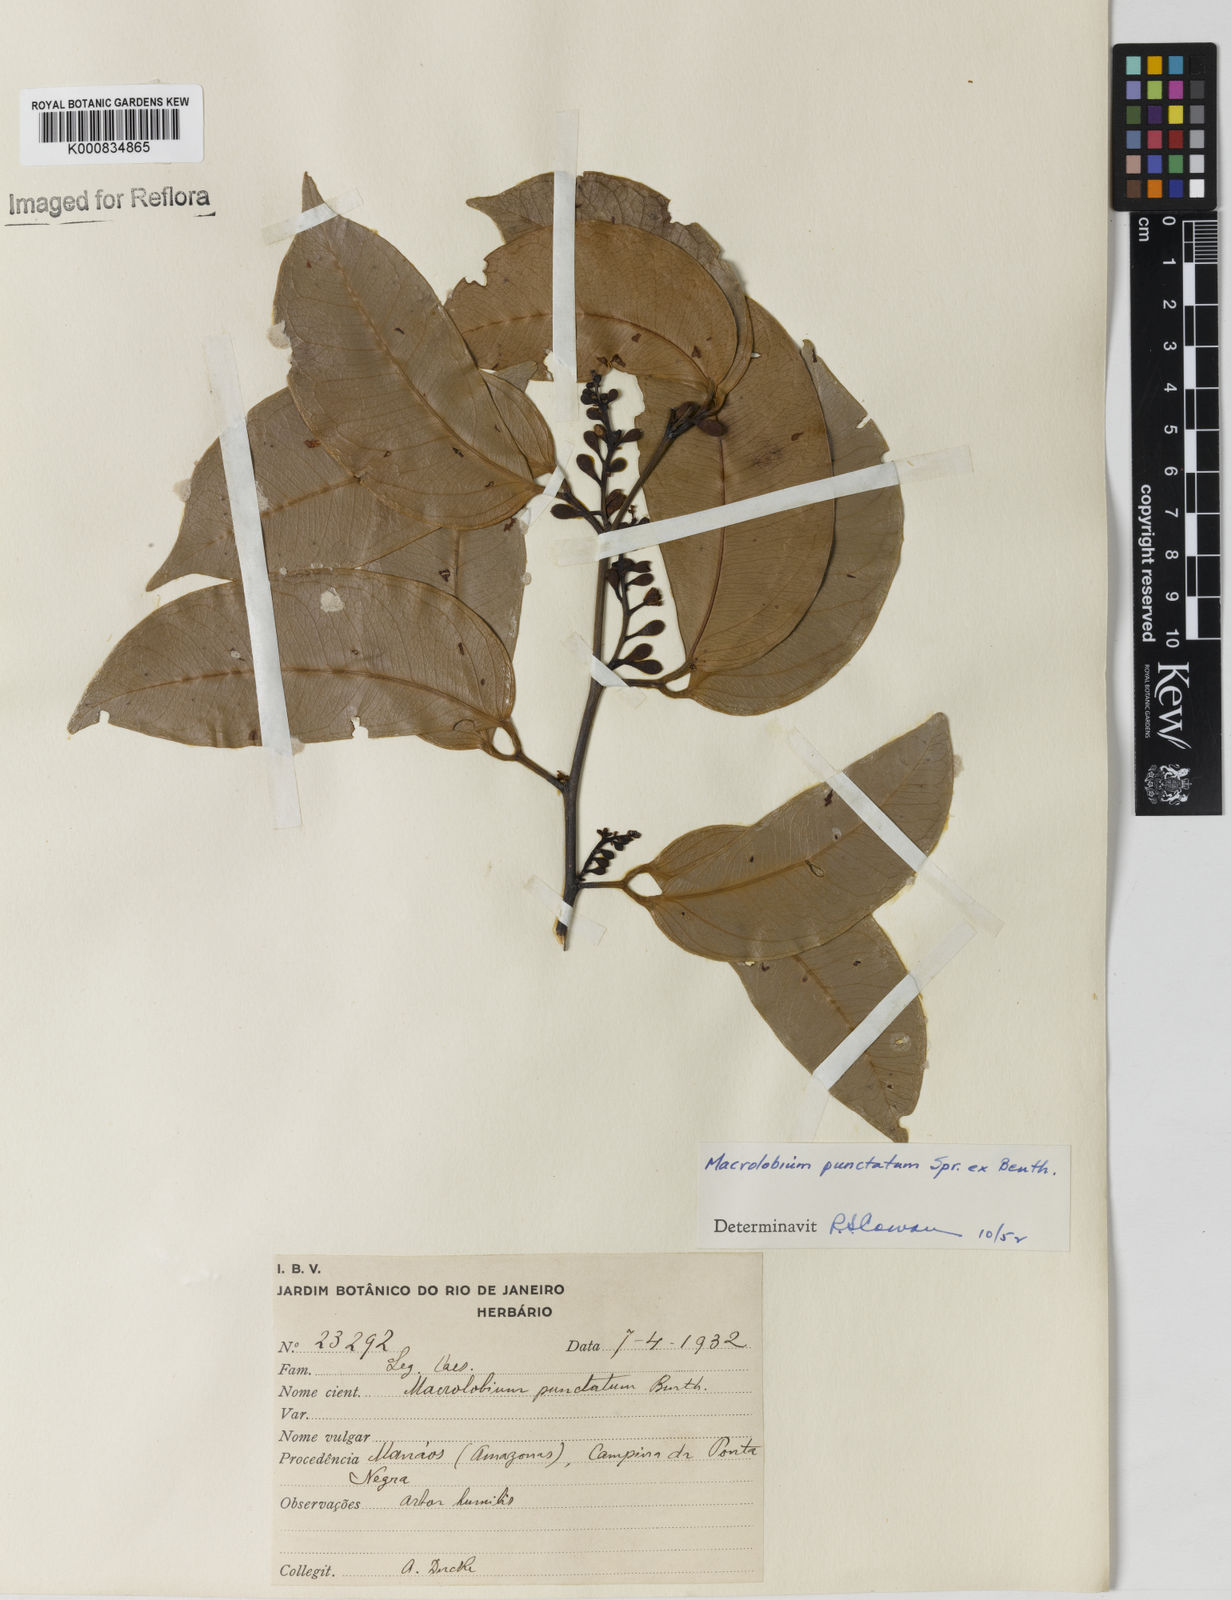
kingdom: Plantae
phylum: Tracheophyta
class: Magnoliopsida
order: Fabales
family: Fabaceae
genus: Macrolobium
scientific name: Macrolobium punctatum
